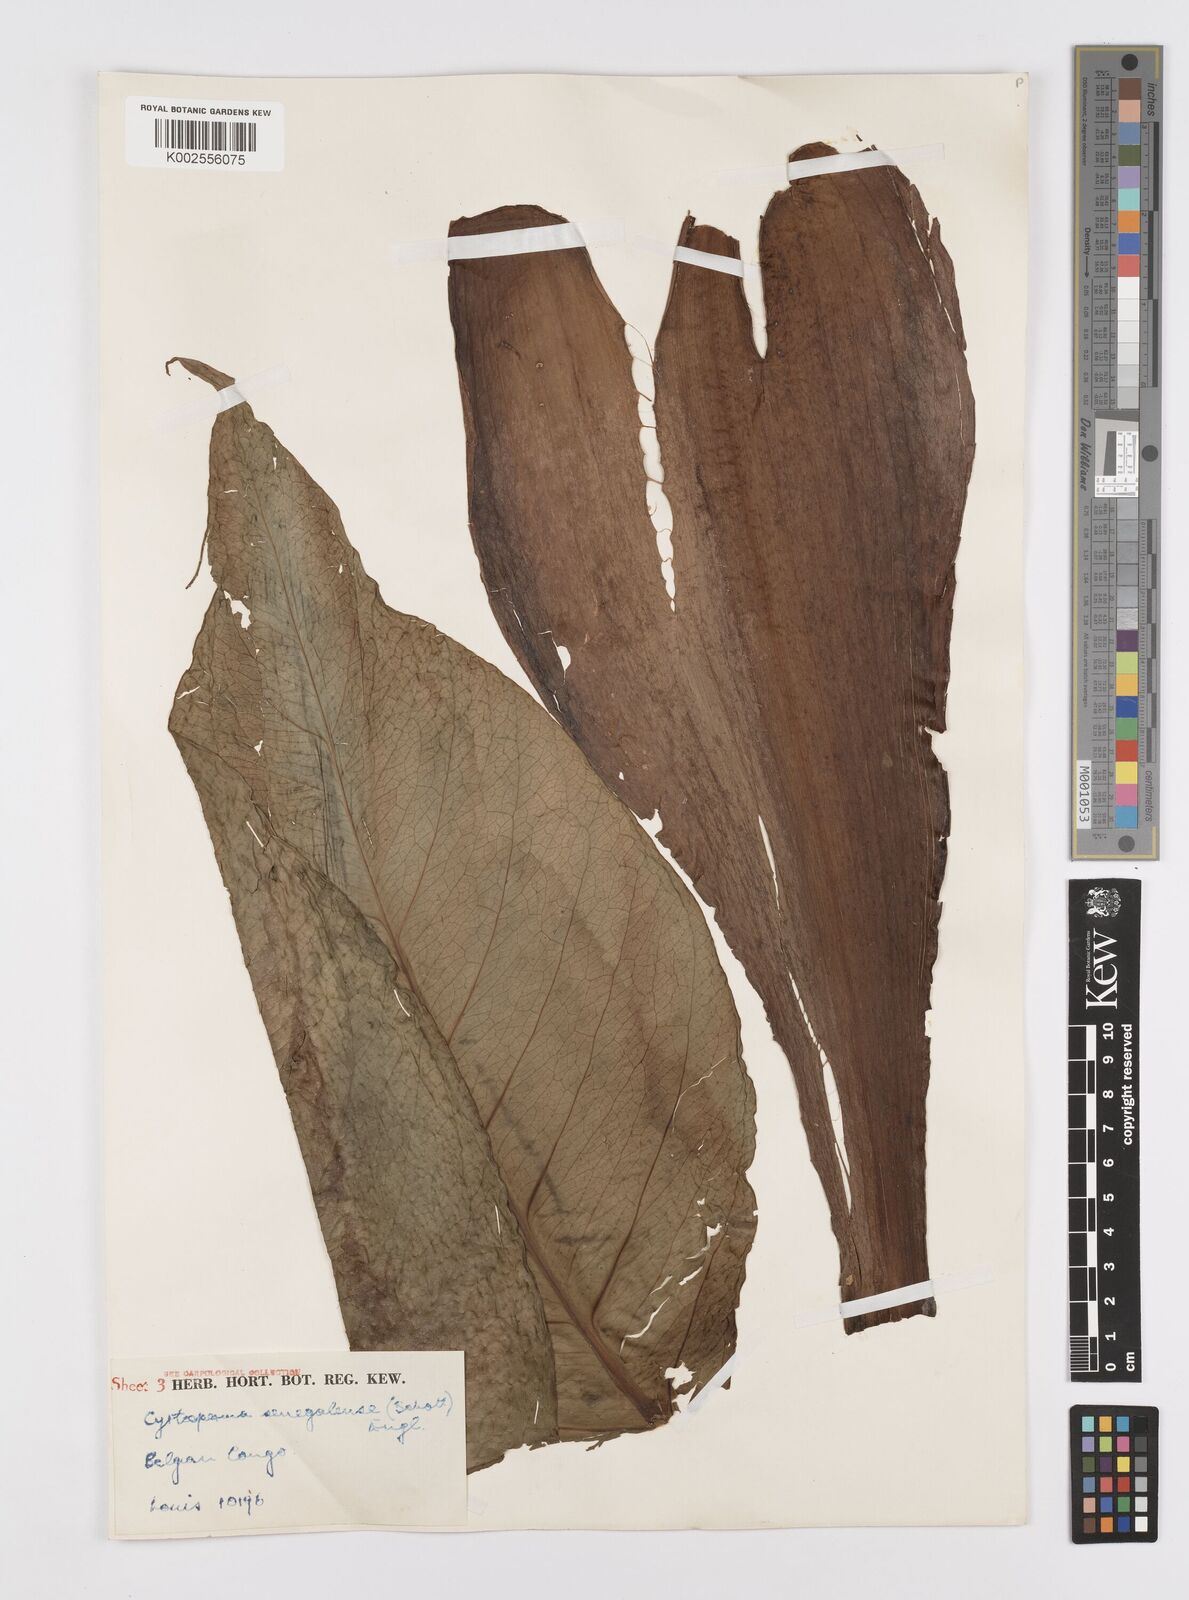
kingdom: Plantae
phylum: Tracheophyta
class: Liliopsida
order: Alismatales
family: Araceae
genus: Lasimorpha
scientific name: Lasimorpha senegalensis
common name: Swamp arum
